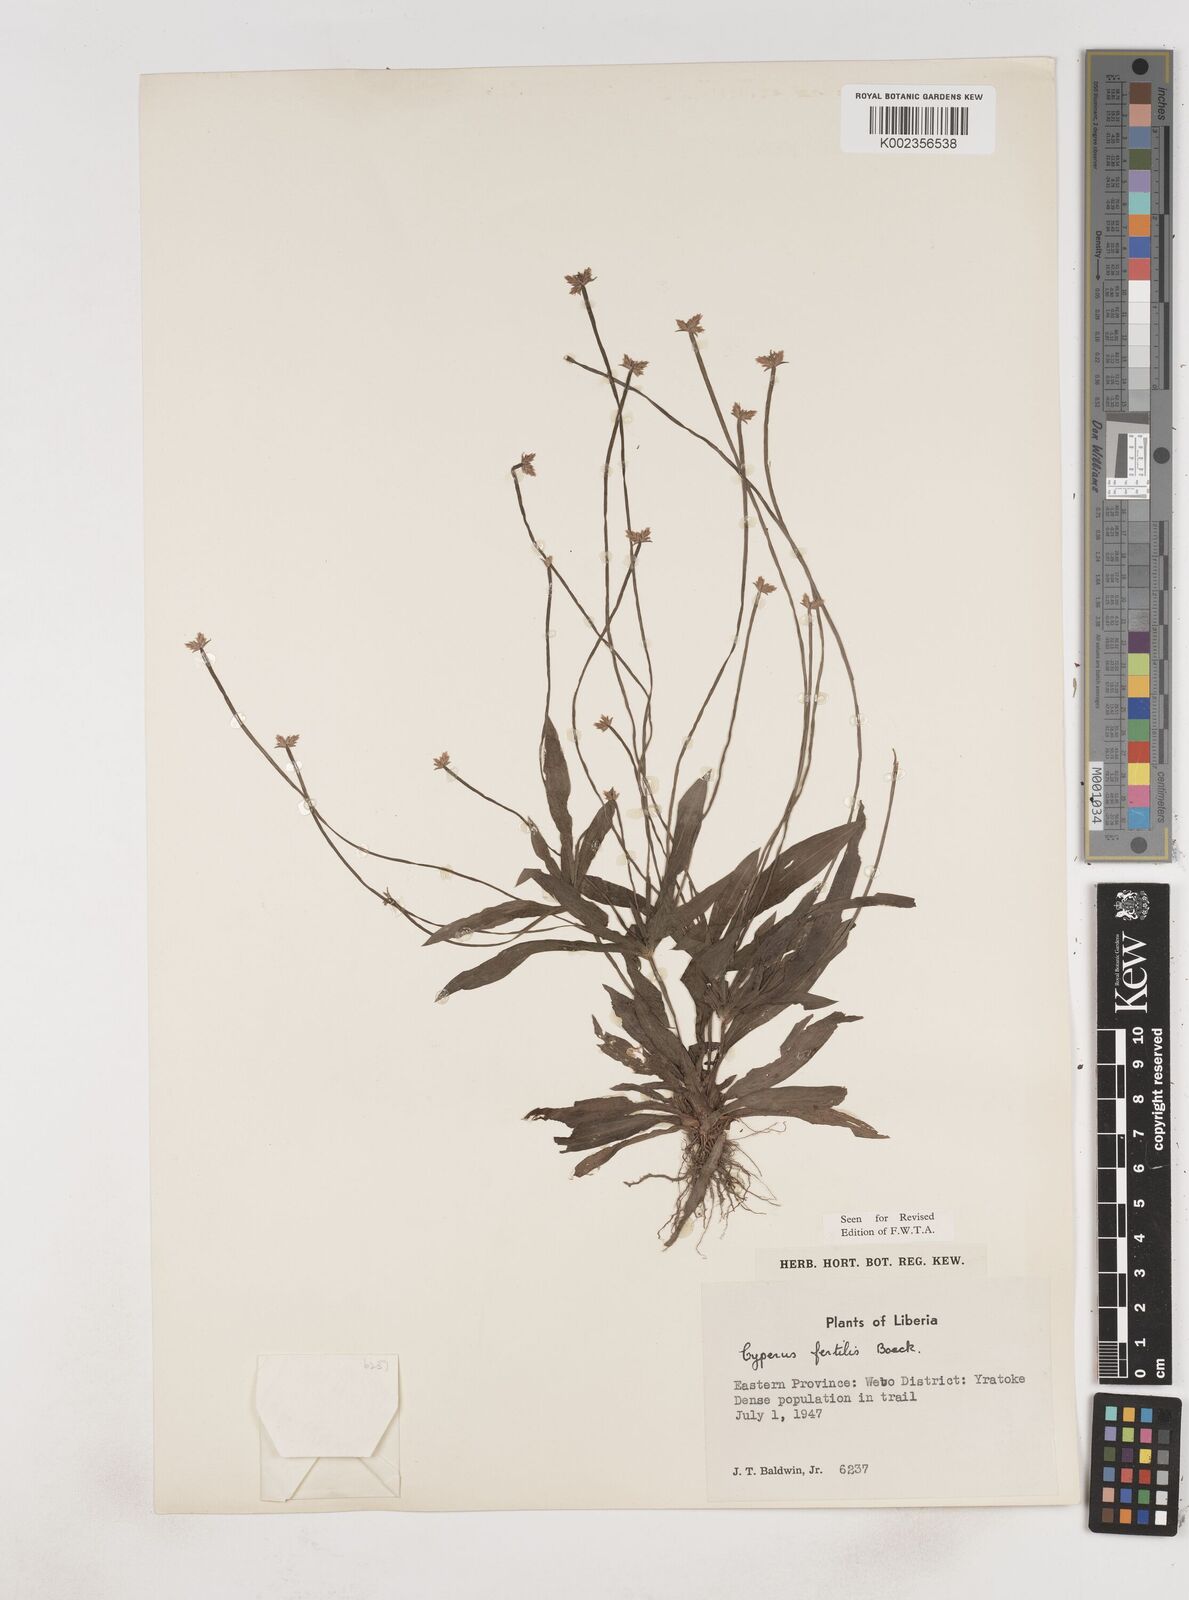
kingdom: Plantae
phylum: Tracheophyta
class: Liliopsida
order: Poales
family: Cyperaceae
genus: Cyperus
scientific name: Cyperus fertilis
